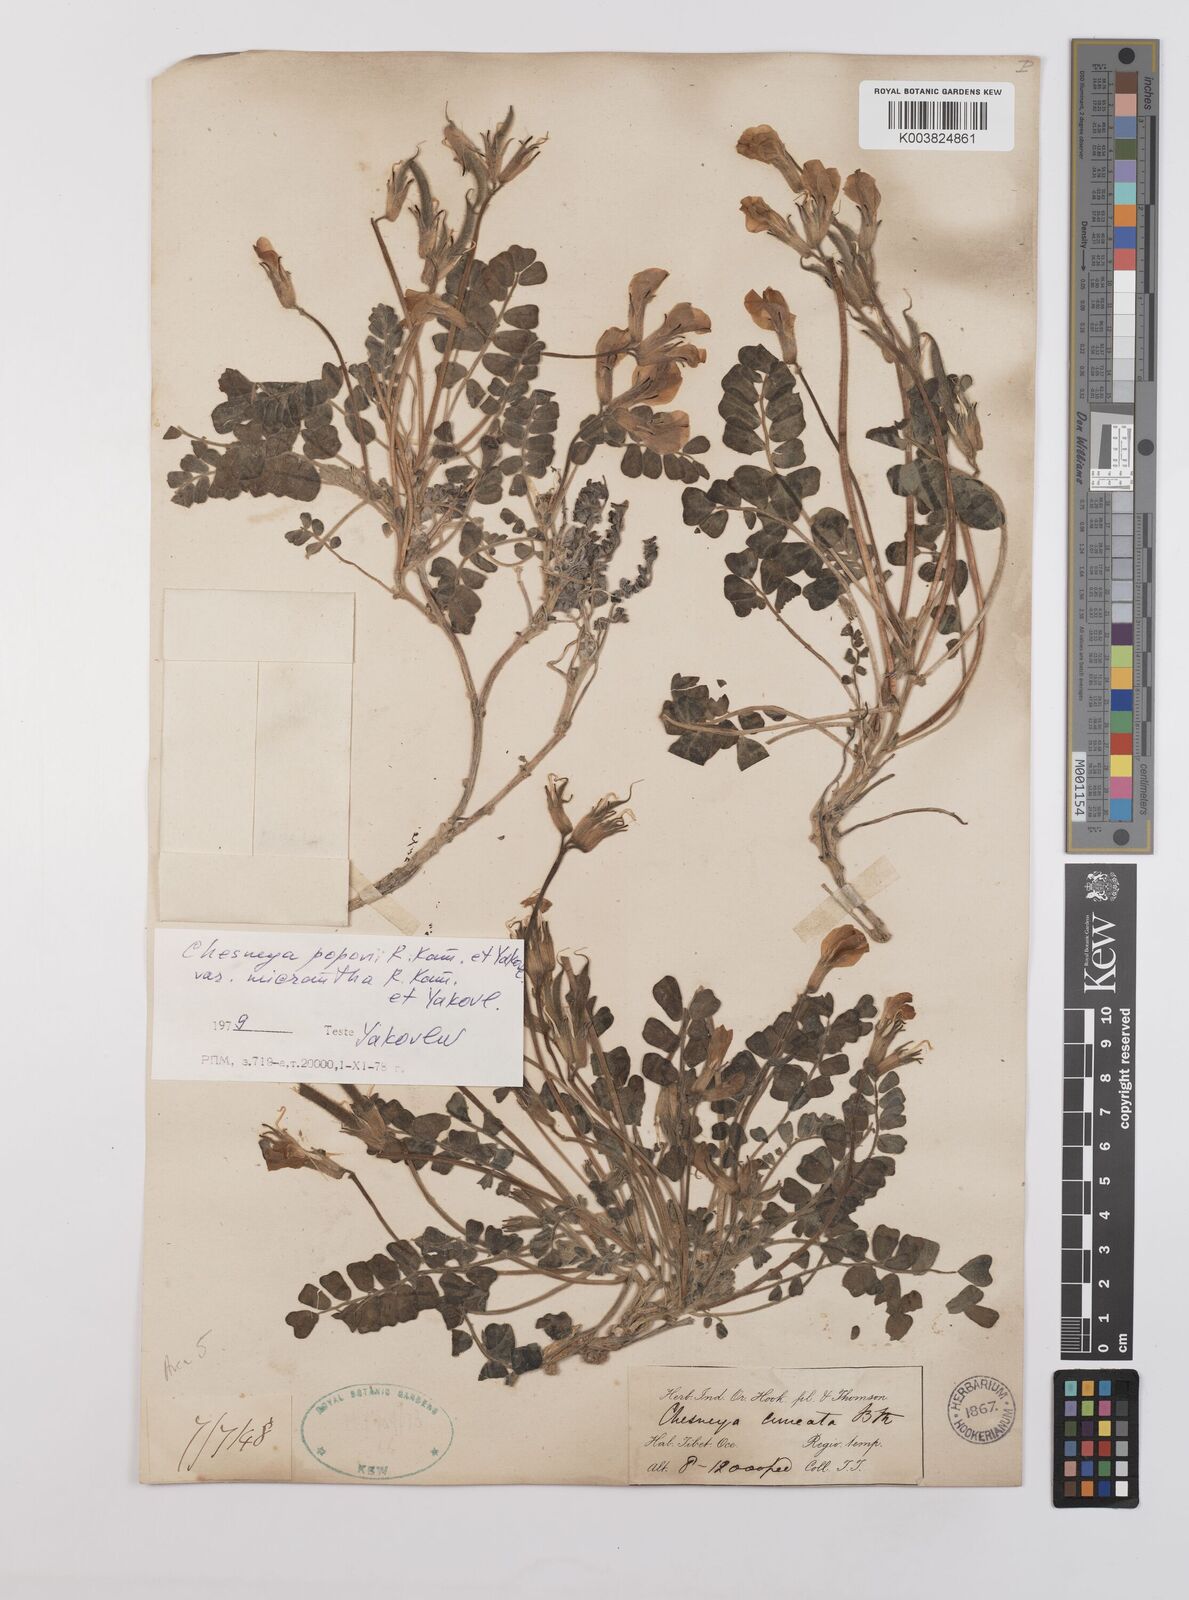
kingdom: Plantae
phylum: Tracheophyta
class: Magnoliopsida
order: Fabales
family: Fabaceae
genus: Chesneya
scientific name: Chesneya cuneata
